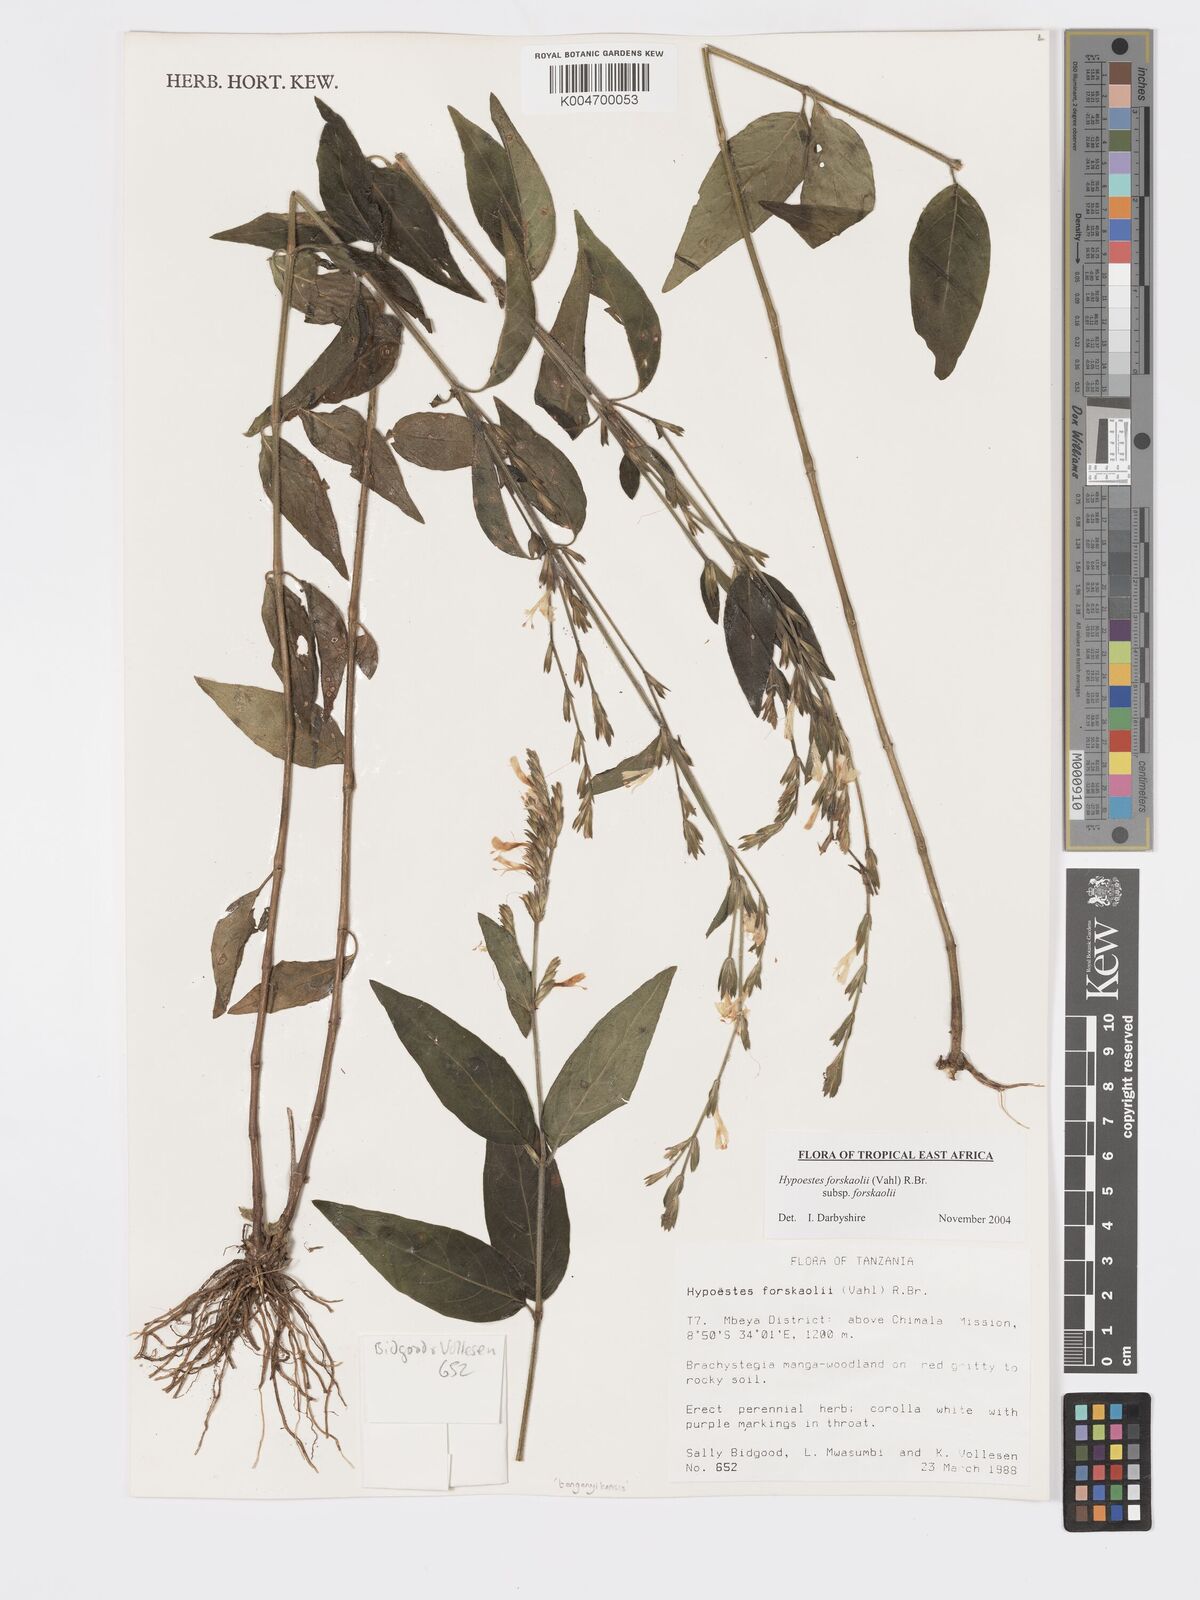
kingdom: Plantae
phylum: Tracheophyta
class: Magnoliopsida
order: Lamiales
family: Acanthaceae
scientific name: Acanthaceae
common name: Acanthaceae
